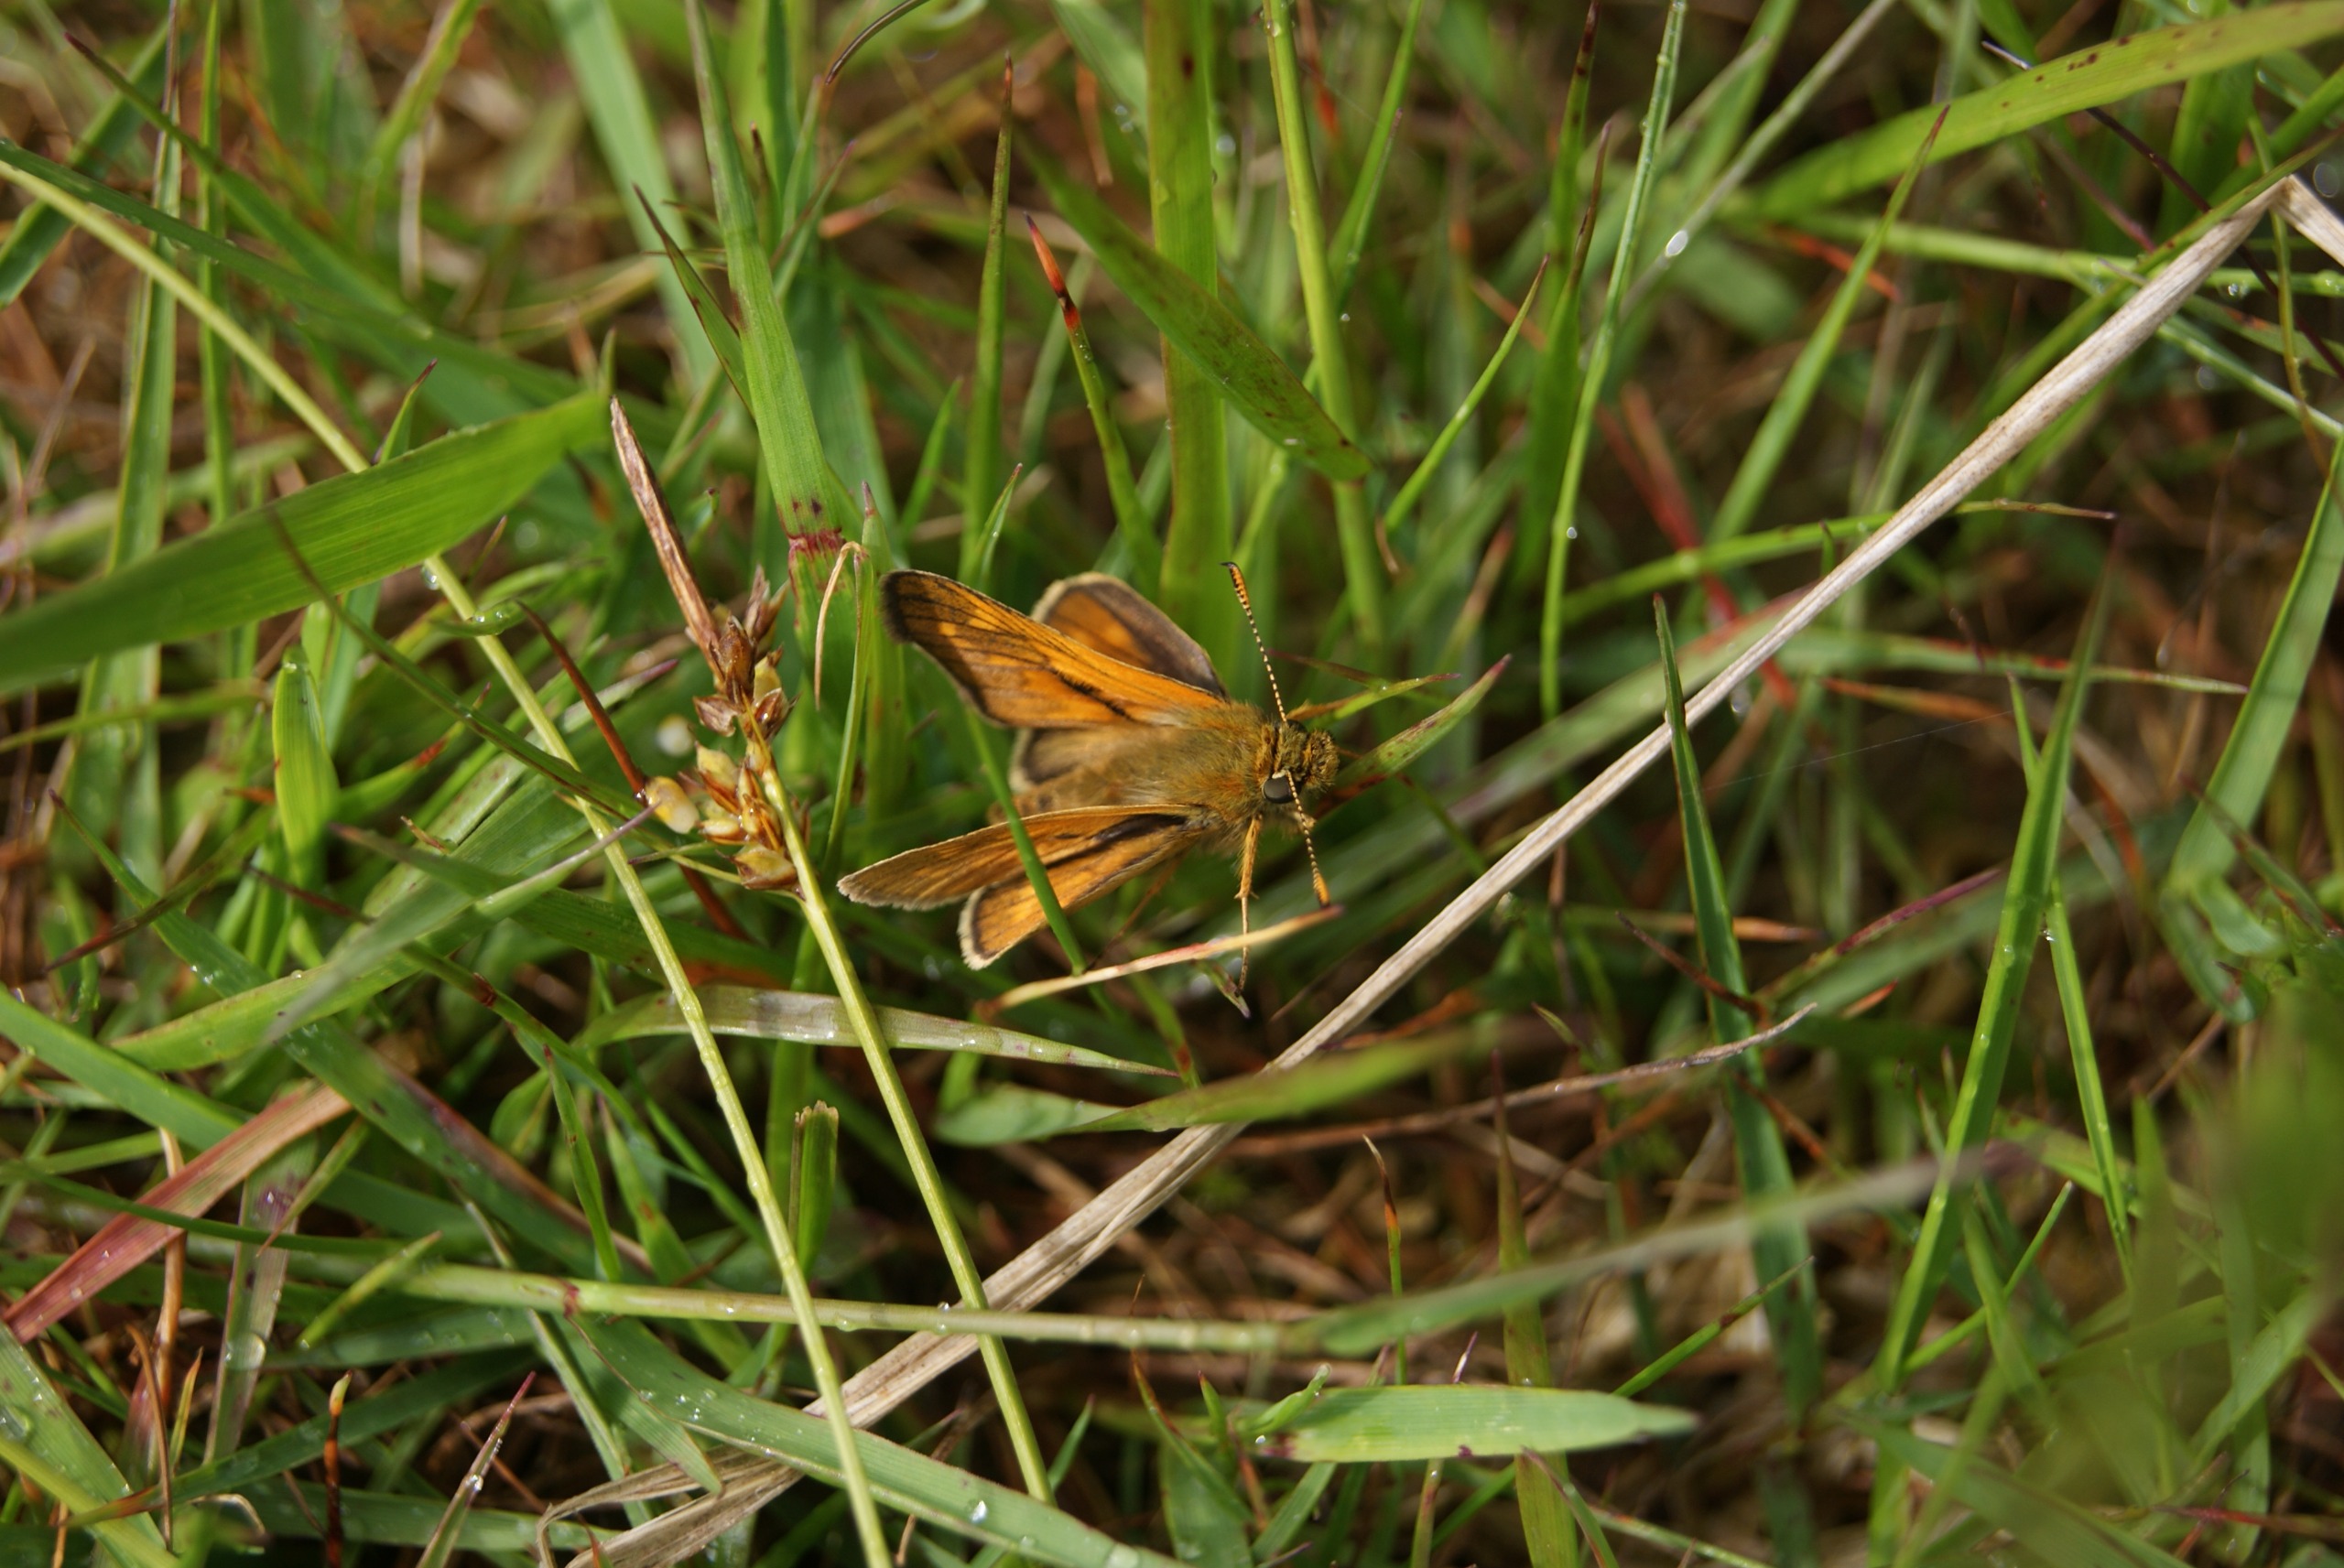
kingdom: Animalia
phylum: Arthropoda
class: Insecta
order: Lepidoptera
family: Hesperiidae
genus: Ochlodes
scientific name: Ochlodes venata
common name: Stor bredpande
